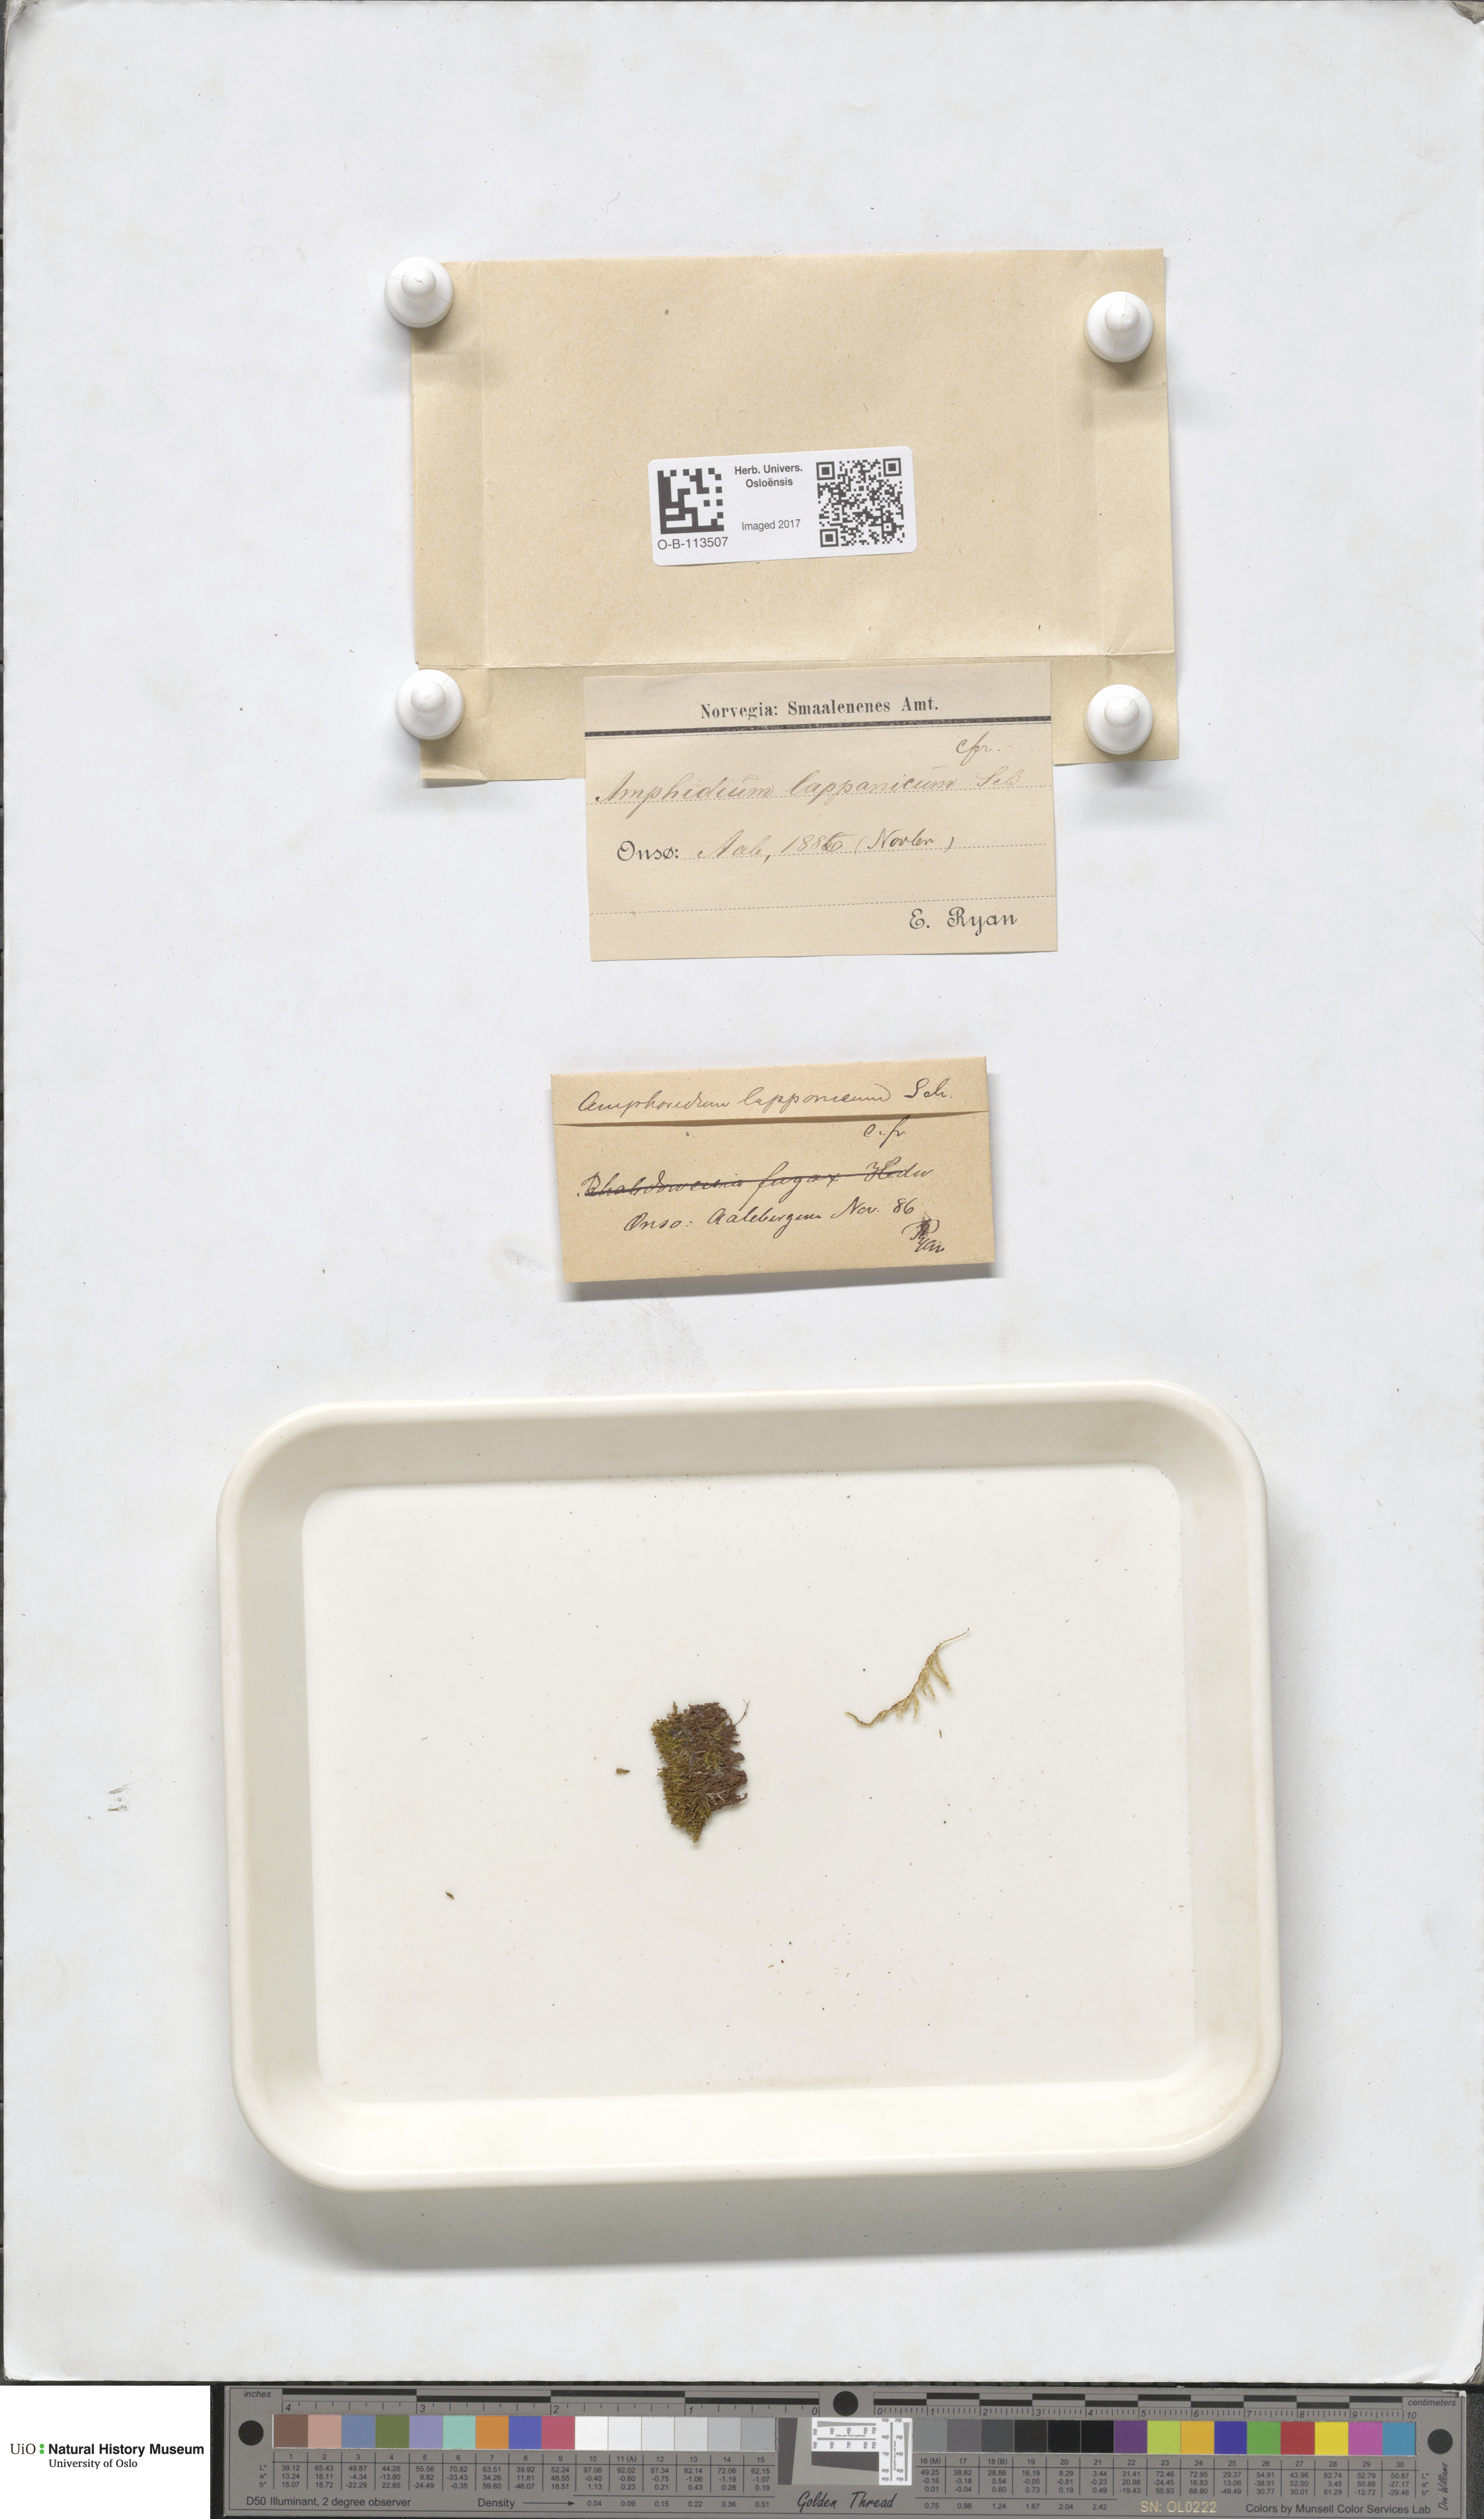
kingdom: Plantae
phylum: Bryophyta
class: Bryopsida
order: Dicranales
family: Amphidiaceae
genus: Amphidium
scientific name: Amphidium lapponicum
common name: Lapland yoke moss
